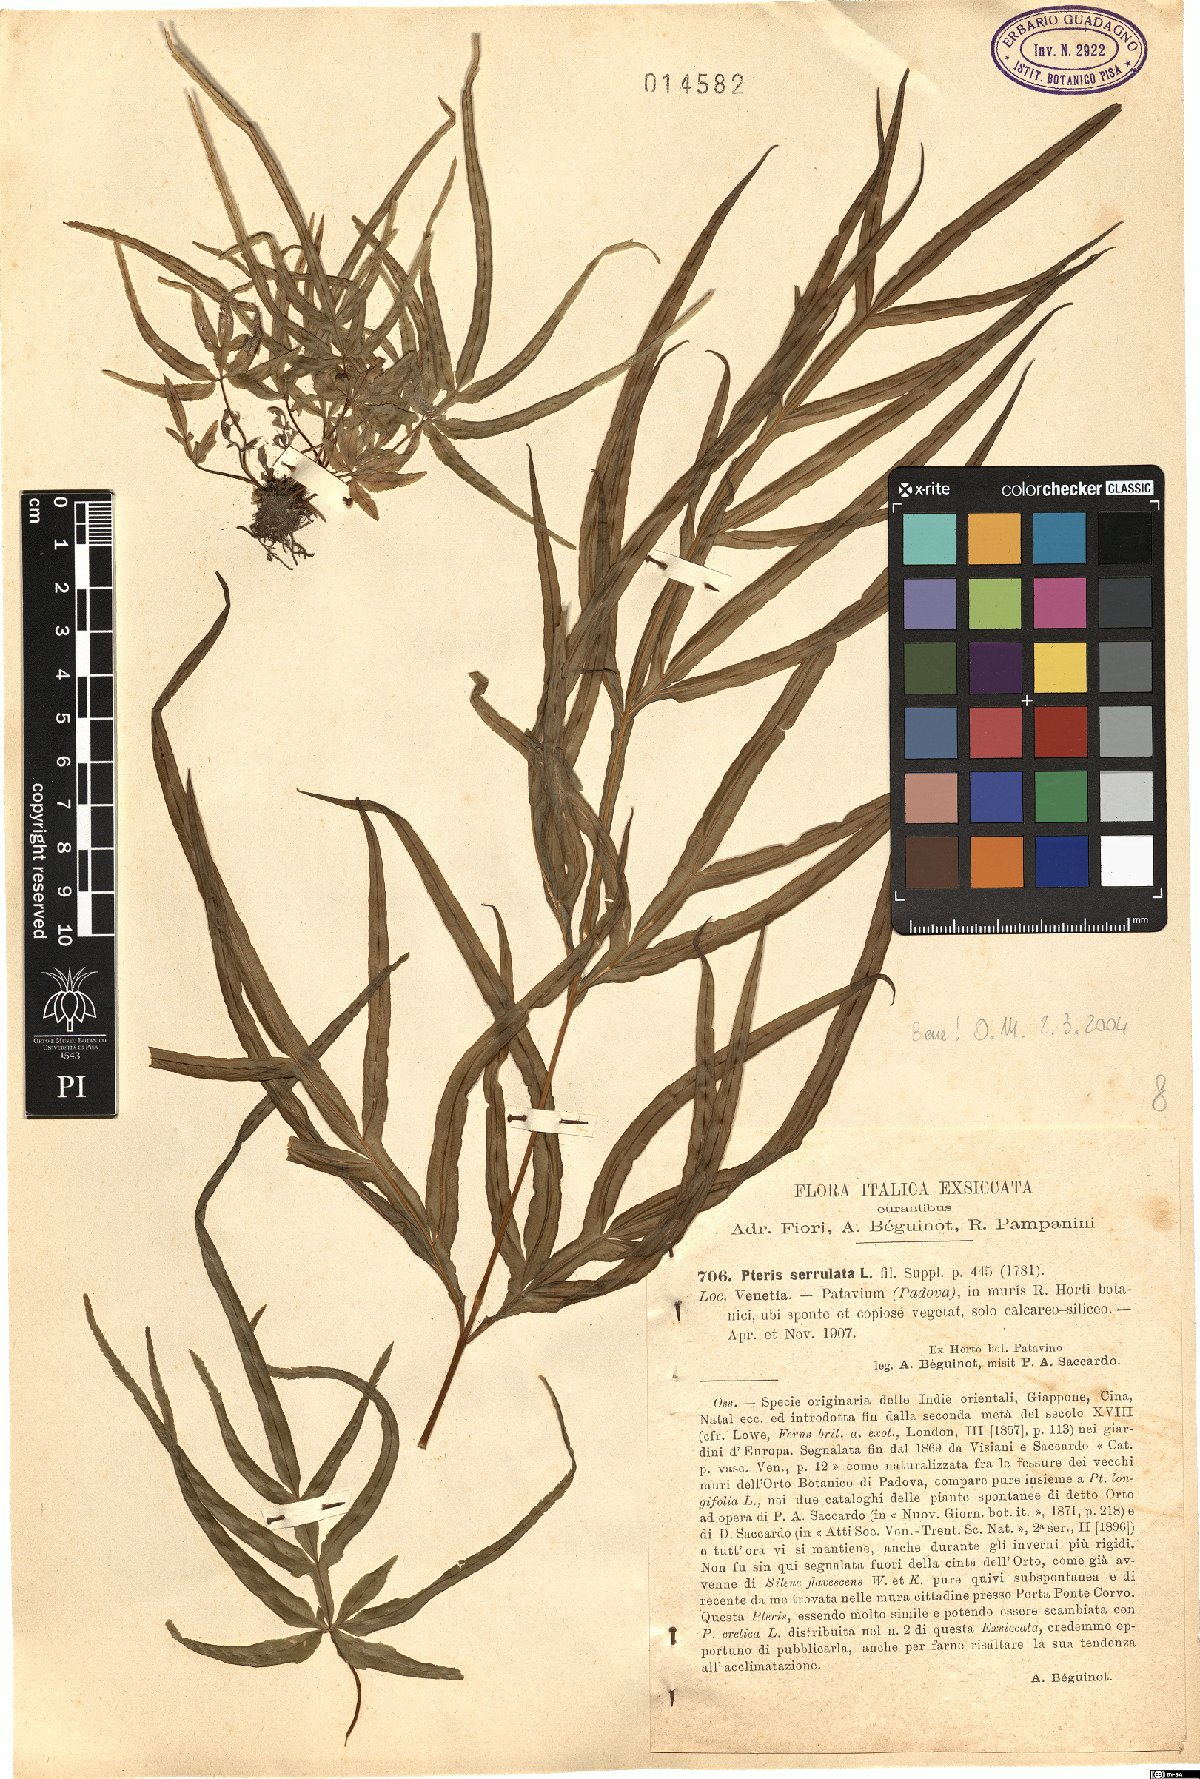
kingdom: Plantae
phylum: Tracheophyta
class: Polypodiopsida
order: Polypodiales
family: Pteridaceae
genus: Pteris
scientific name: Pteris multifida
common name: Spider brake
